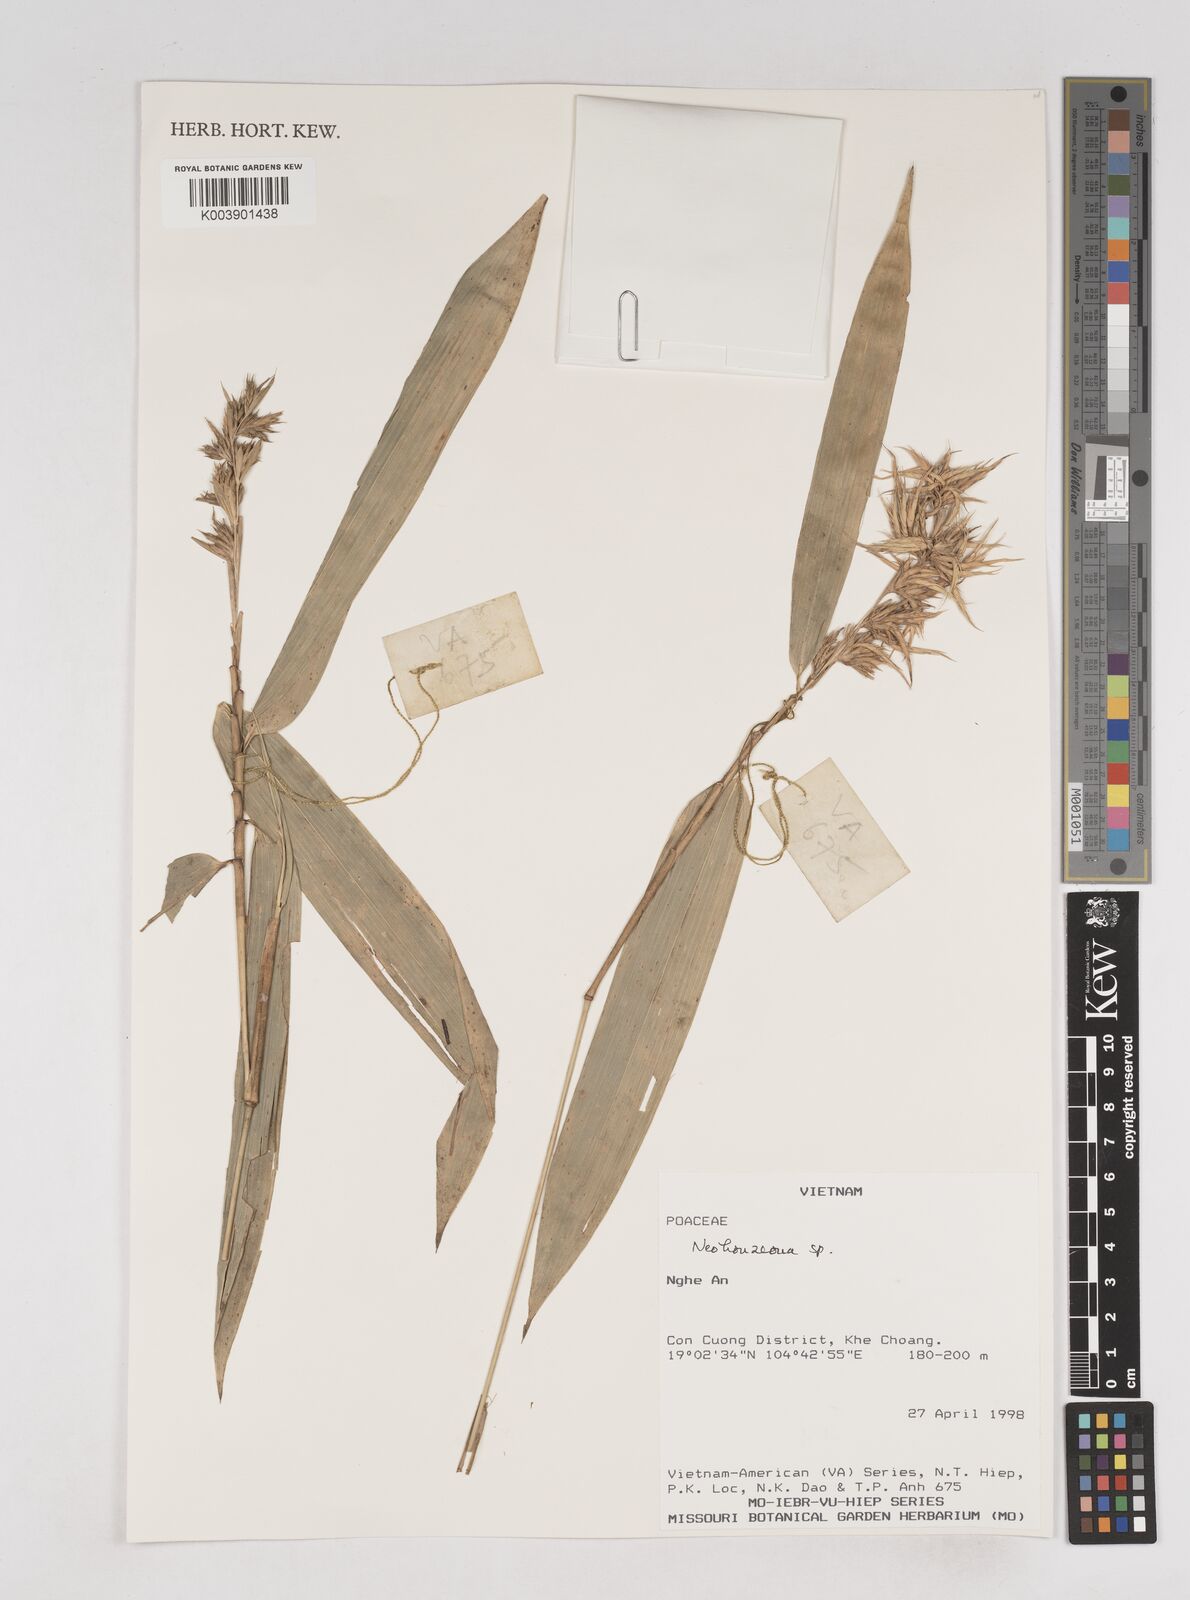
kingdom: Plantae
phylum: Tracheophyta
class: Liliopsida
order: Poales
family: Poaceae
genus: Schizostachyum
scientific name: Schizostachyum
